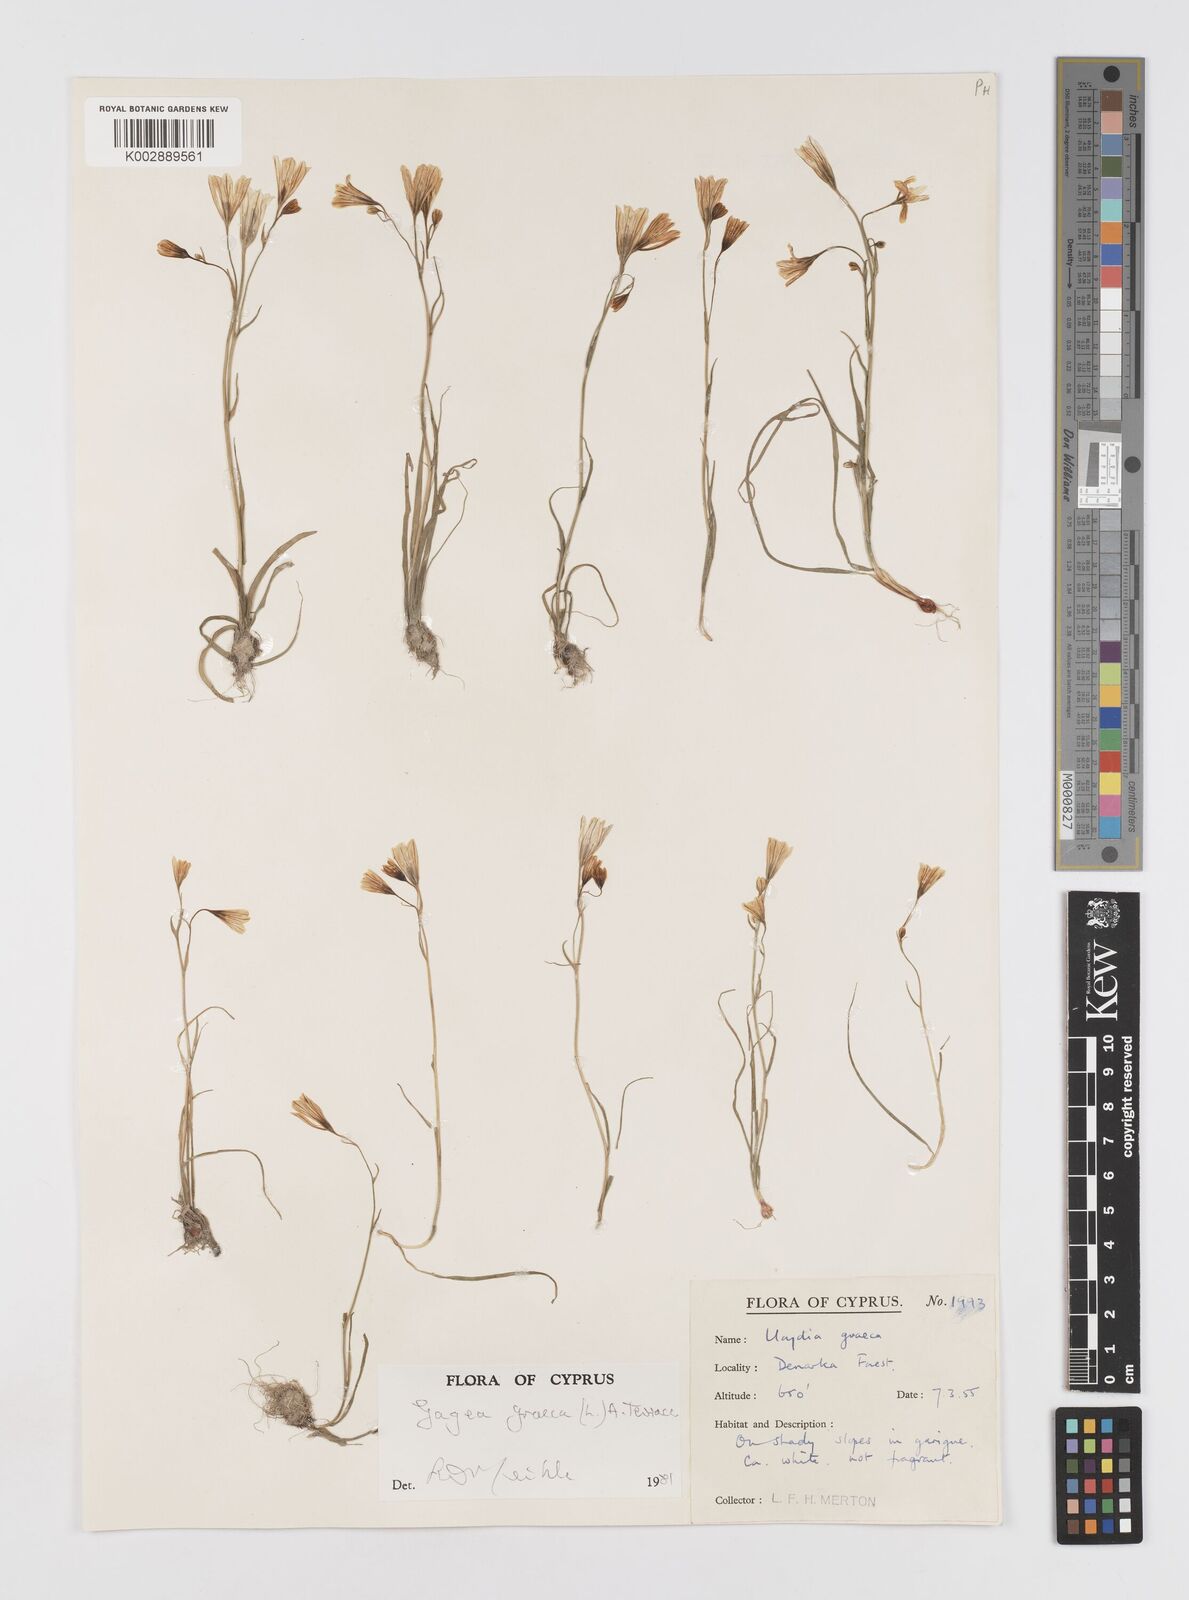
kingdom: Plantae
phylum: Tracheophyta
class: Liliopsida
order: Liliales
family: Liliaceae
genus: Gagea
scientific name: Gagea graeca
